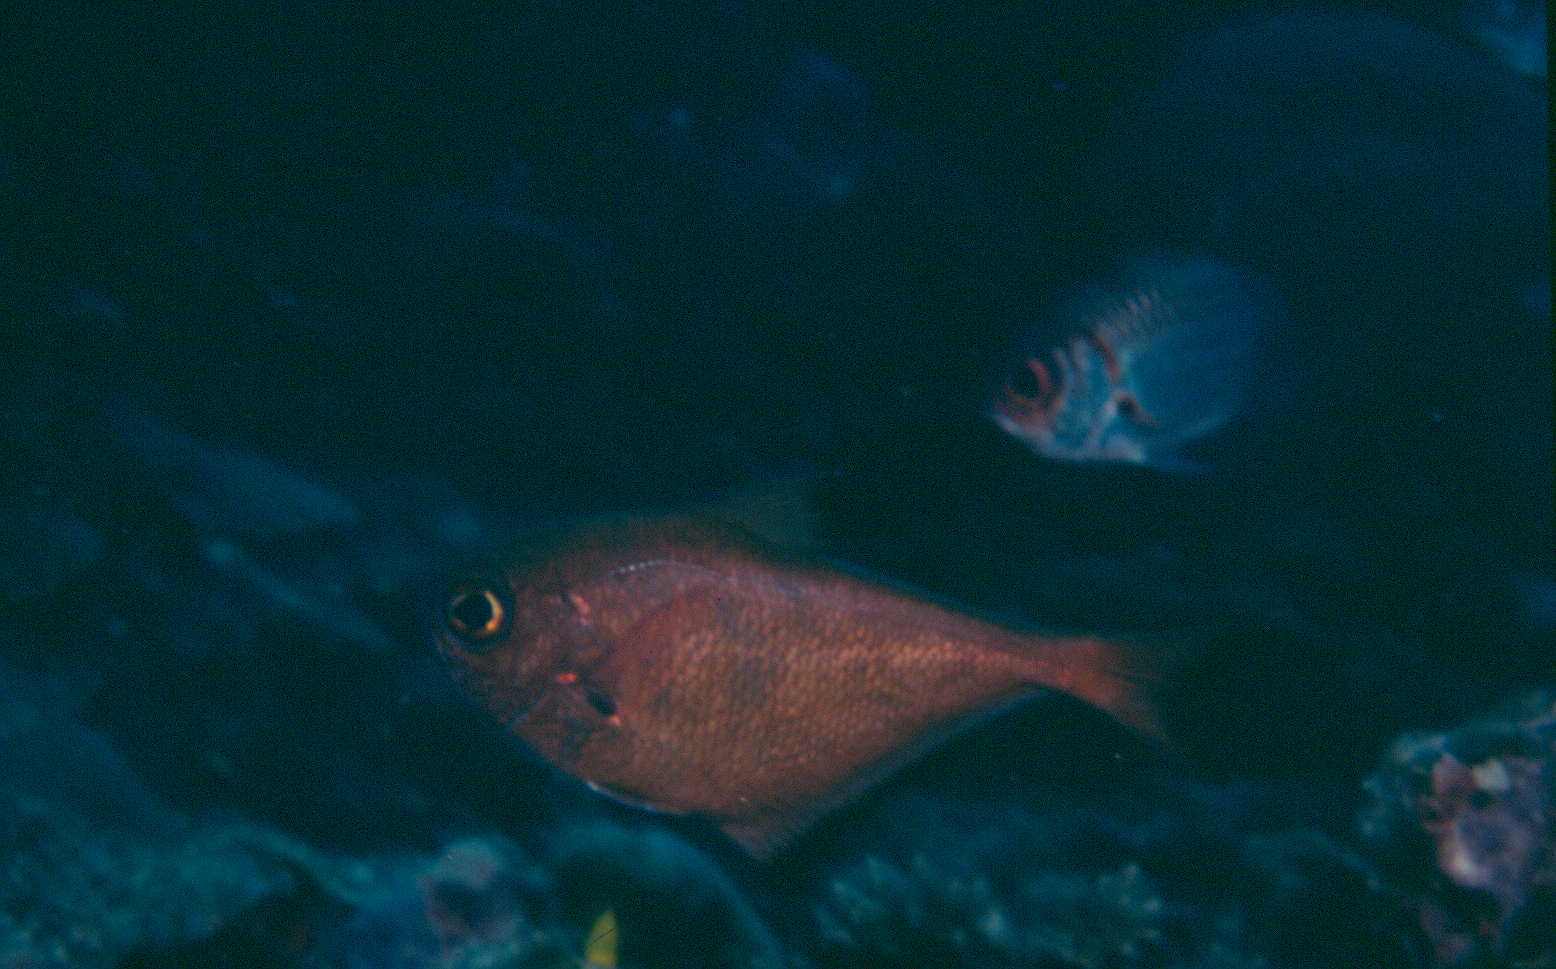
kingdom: Animalia
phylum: Chordata
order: Perciformes
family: Pempheridae
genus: Pempheris
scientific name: Pempheris vanicolensis
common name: Vanikoro sweeper
